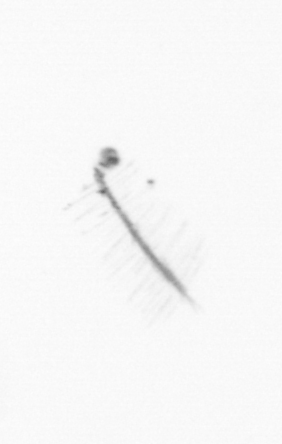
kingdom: Chromista
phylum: Ochrophyta
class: Bacillariophyceae
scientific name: Bacillariophyceae
